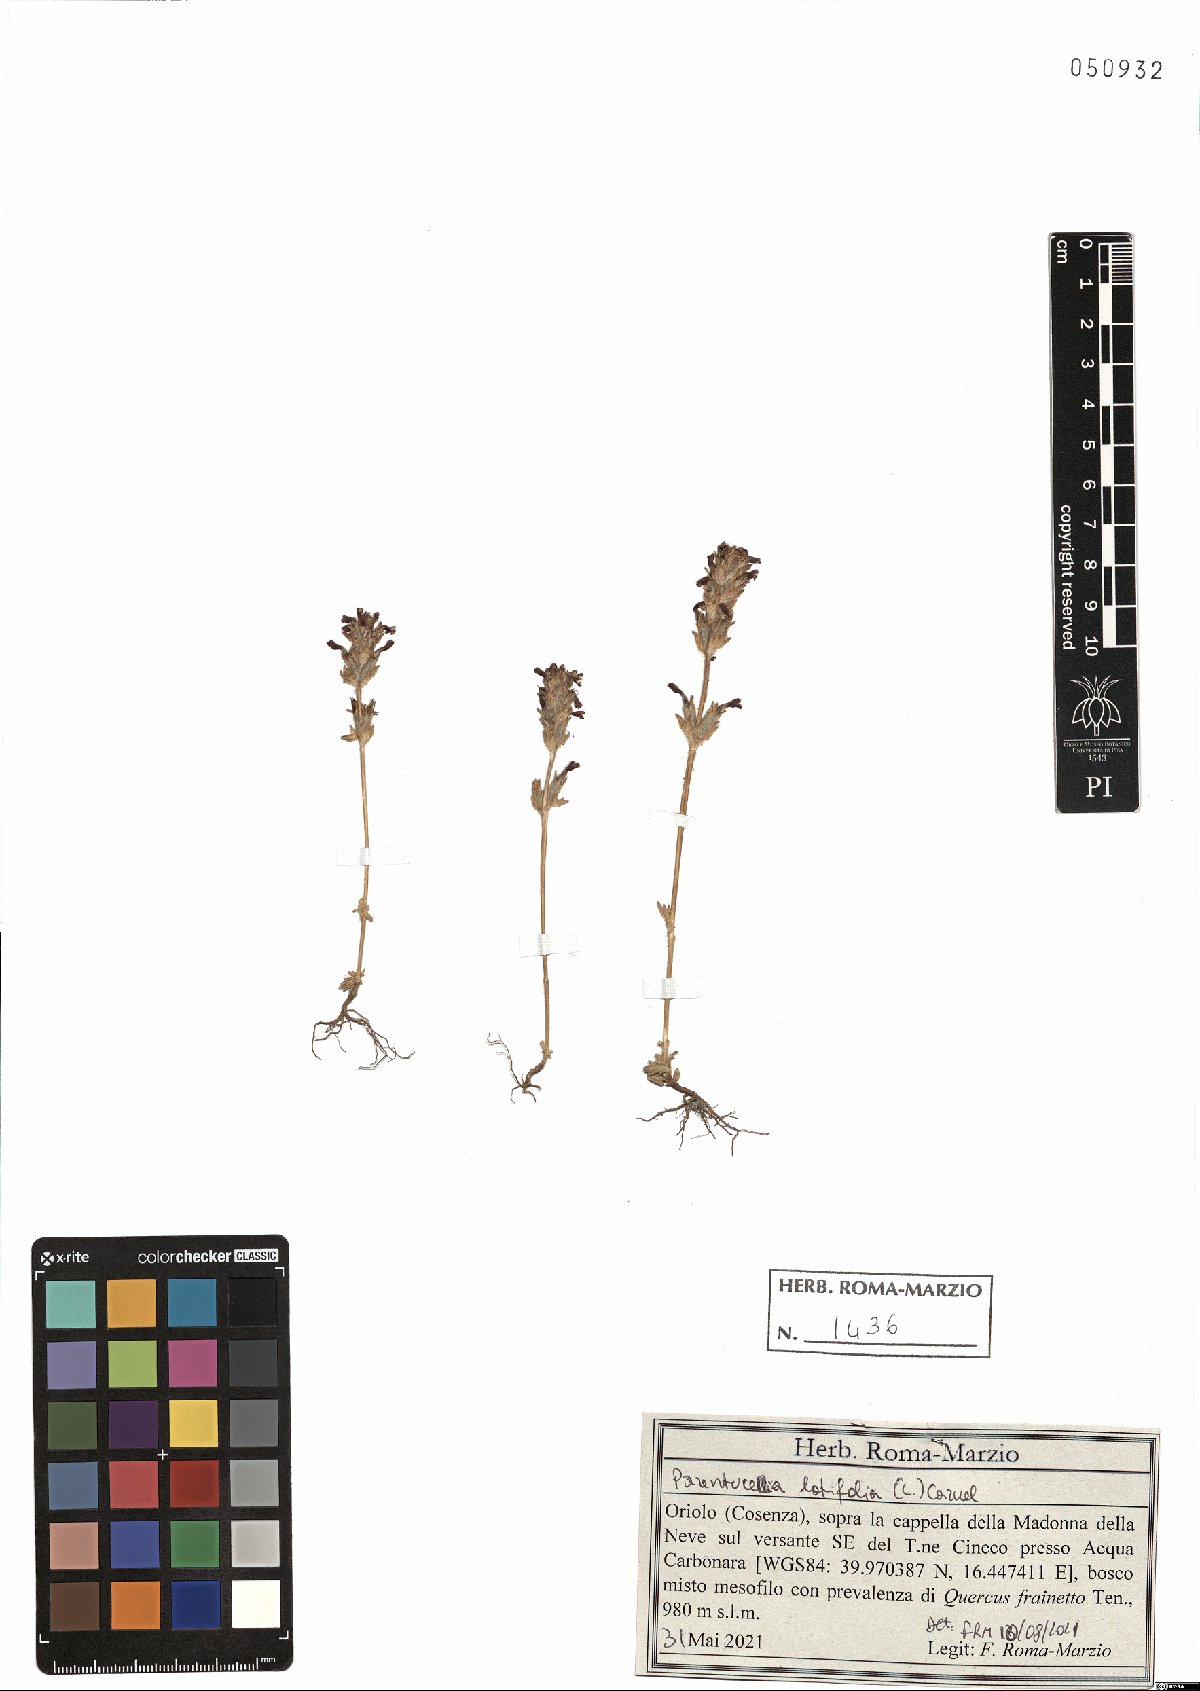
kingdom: Plantae
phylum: Tracheophyta
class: Magnoliopsida
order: Lamiales
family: Orobanchaceae
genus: Parentucellia
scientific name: Parentucellia latifolia
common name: Broadleaf glandweed
